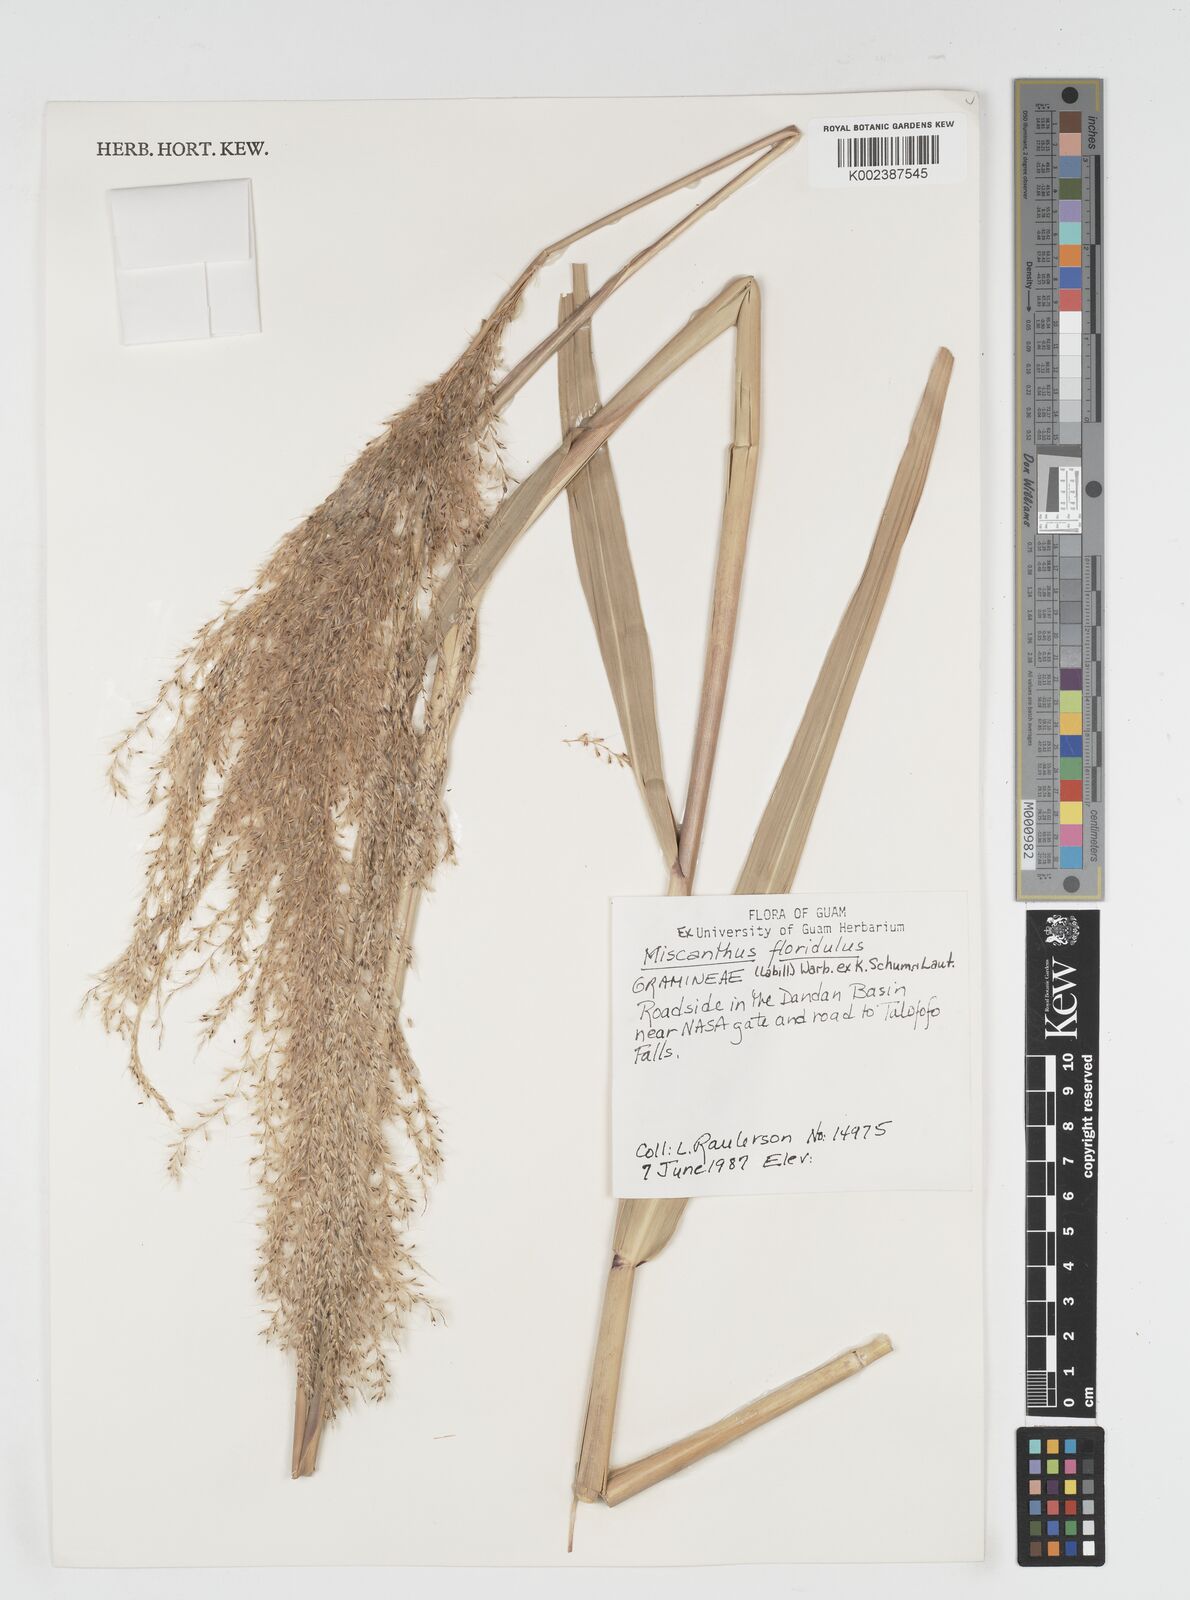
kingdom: Plantae
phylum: Tracheophyta
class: Liliopsida
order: Poales
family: Poaceae
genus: Miscanthus
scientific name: Miscanthus floridulus
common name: Pacific island silvergrass
